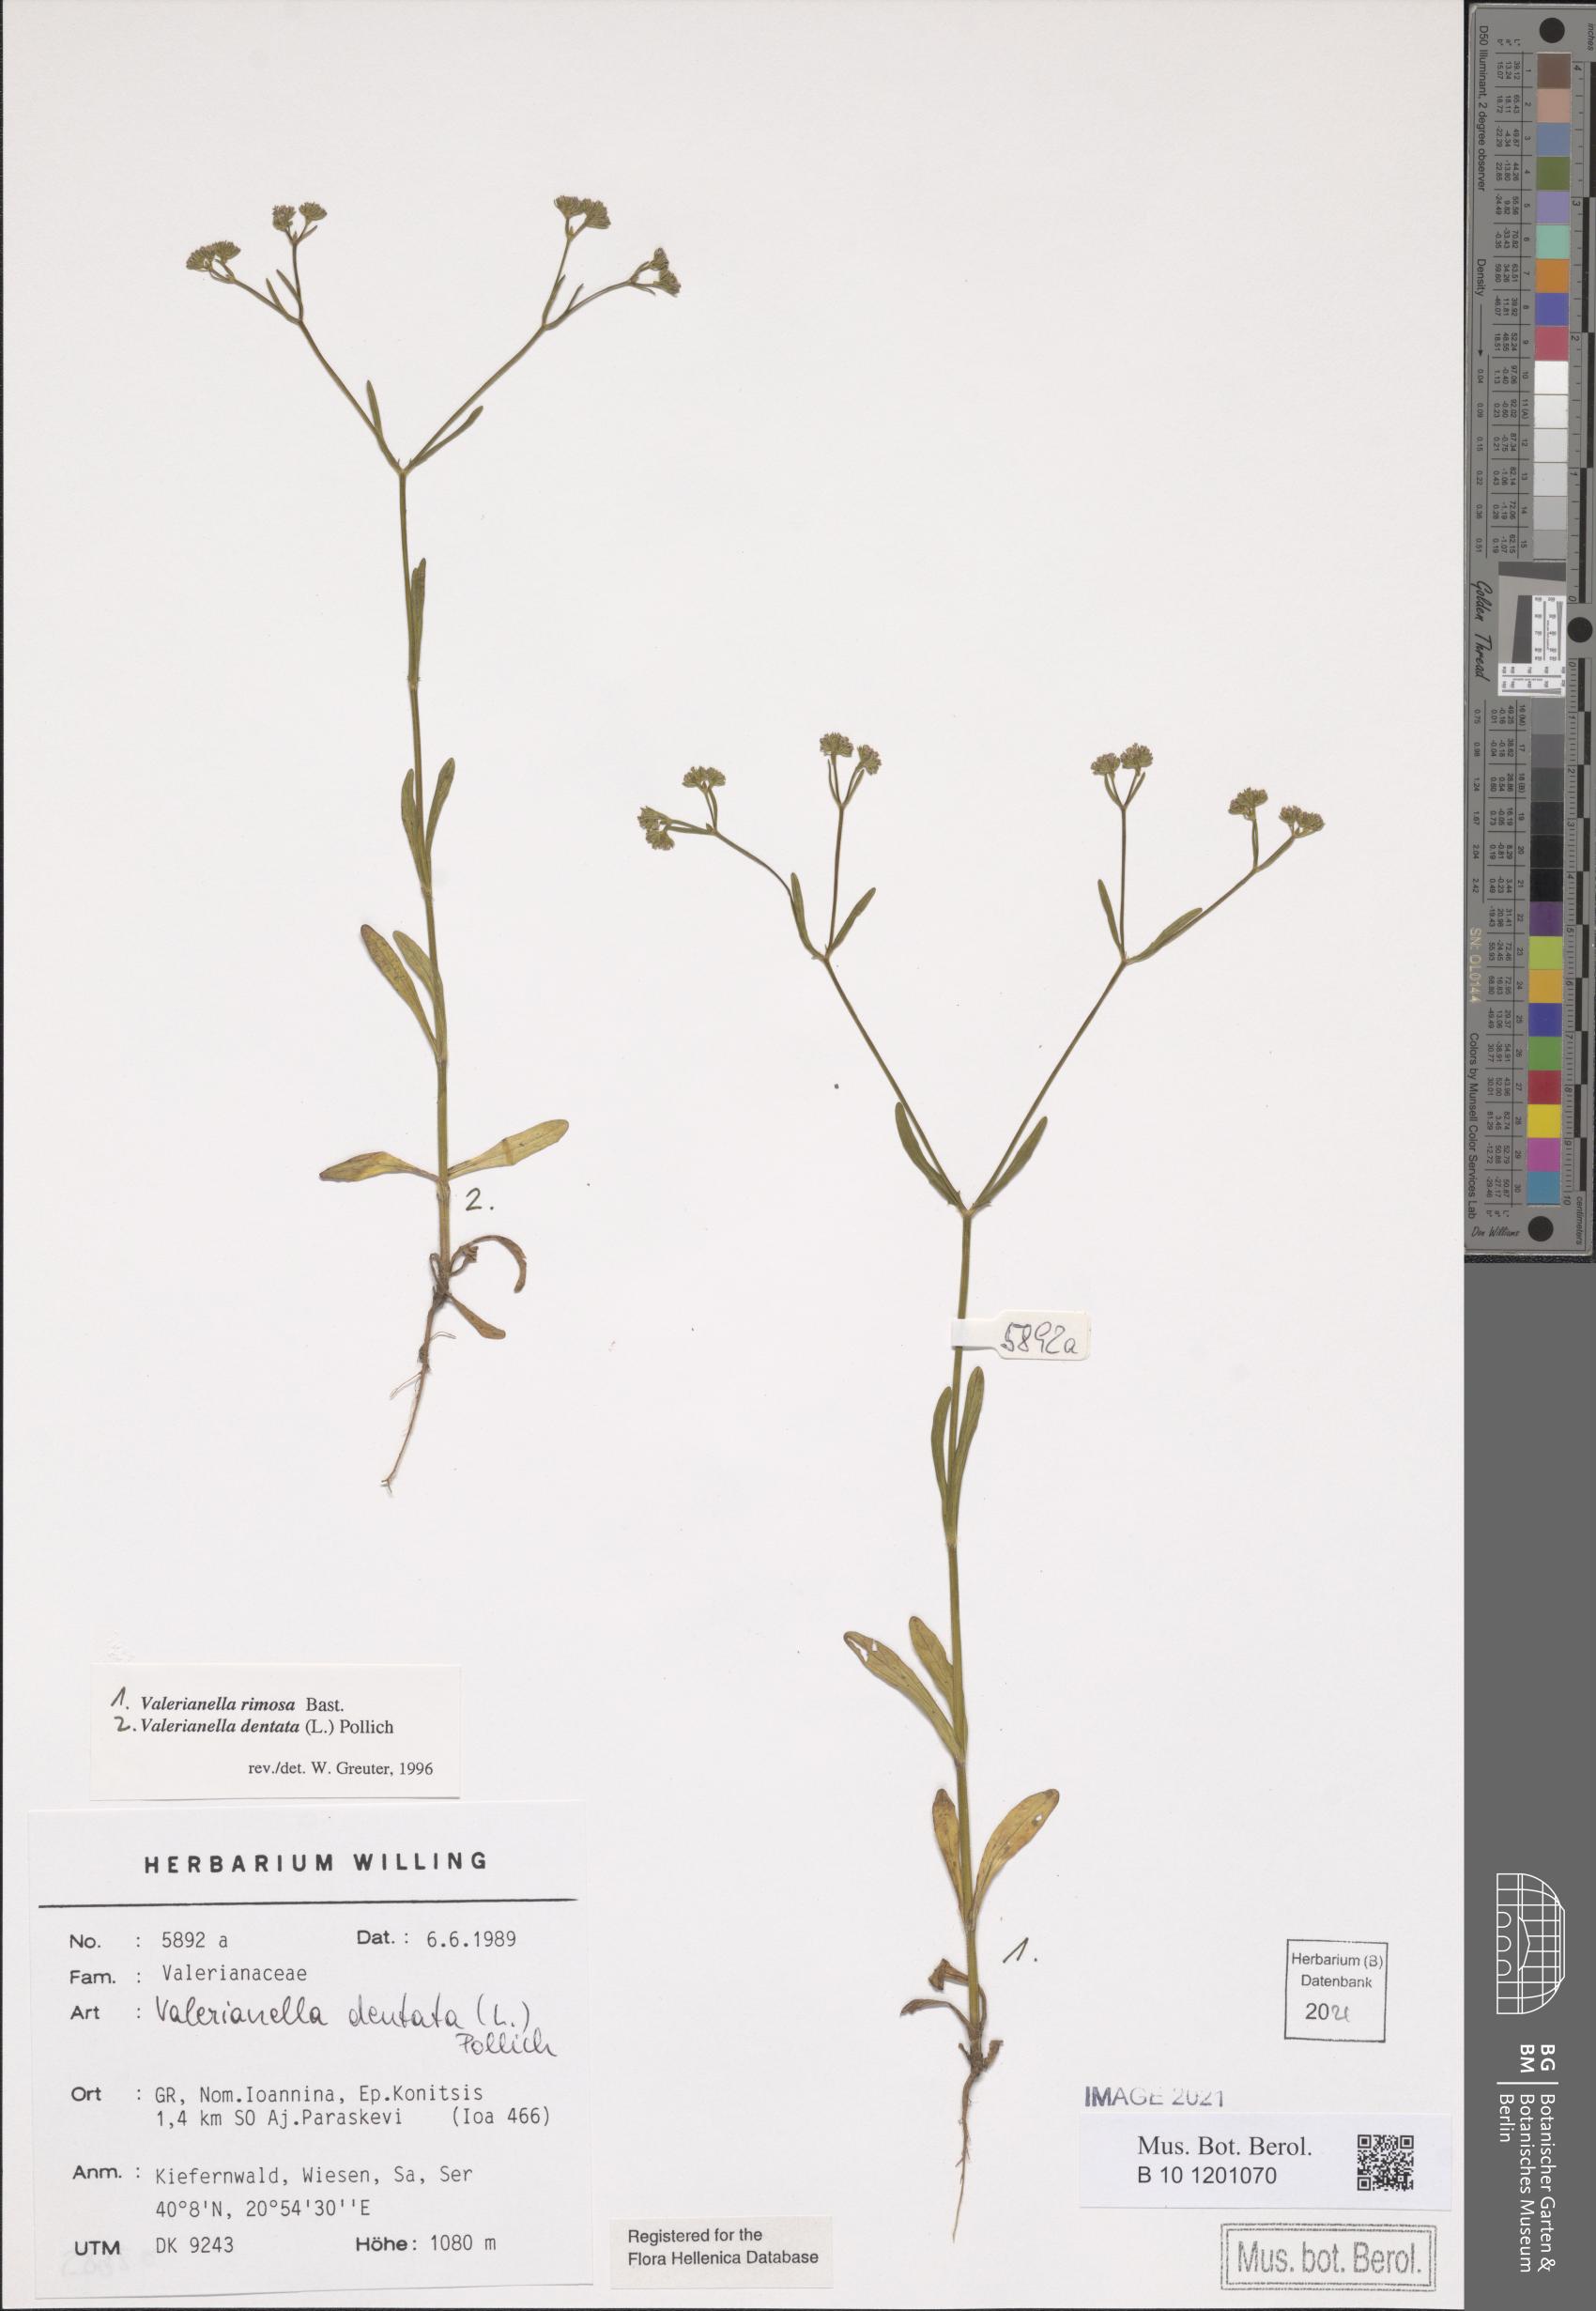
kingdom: Plantae
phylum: Tracheophyta
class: Magnoliopsida
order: Dipsacales
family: Caprifoliaceae
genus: Valerianella
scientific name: Valerianella rimosa
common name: Broad-fruited cornsalad
